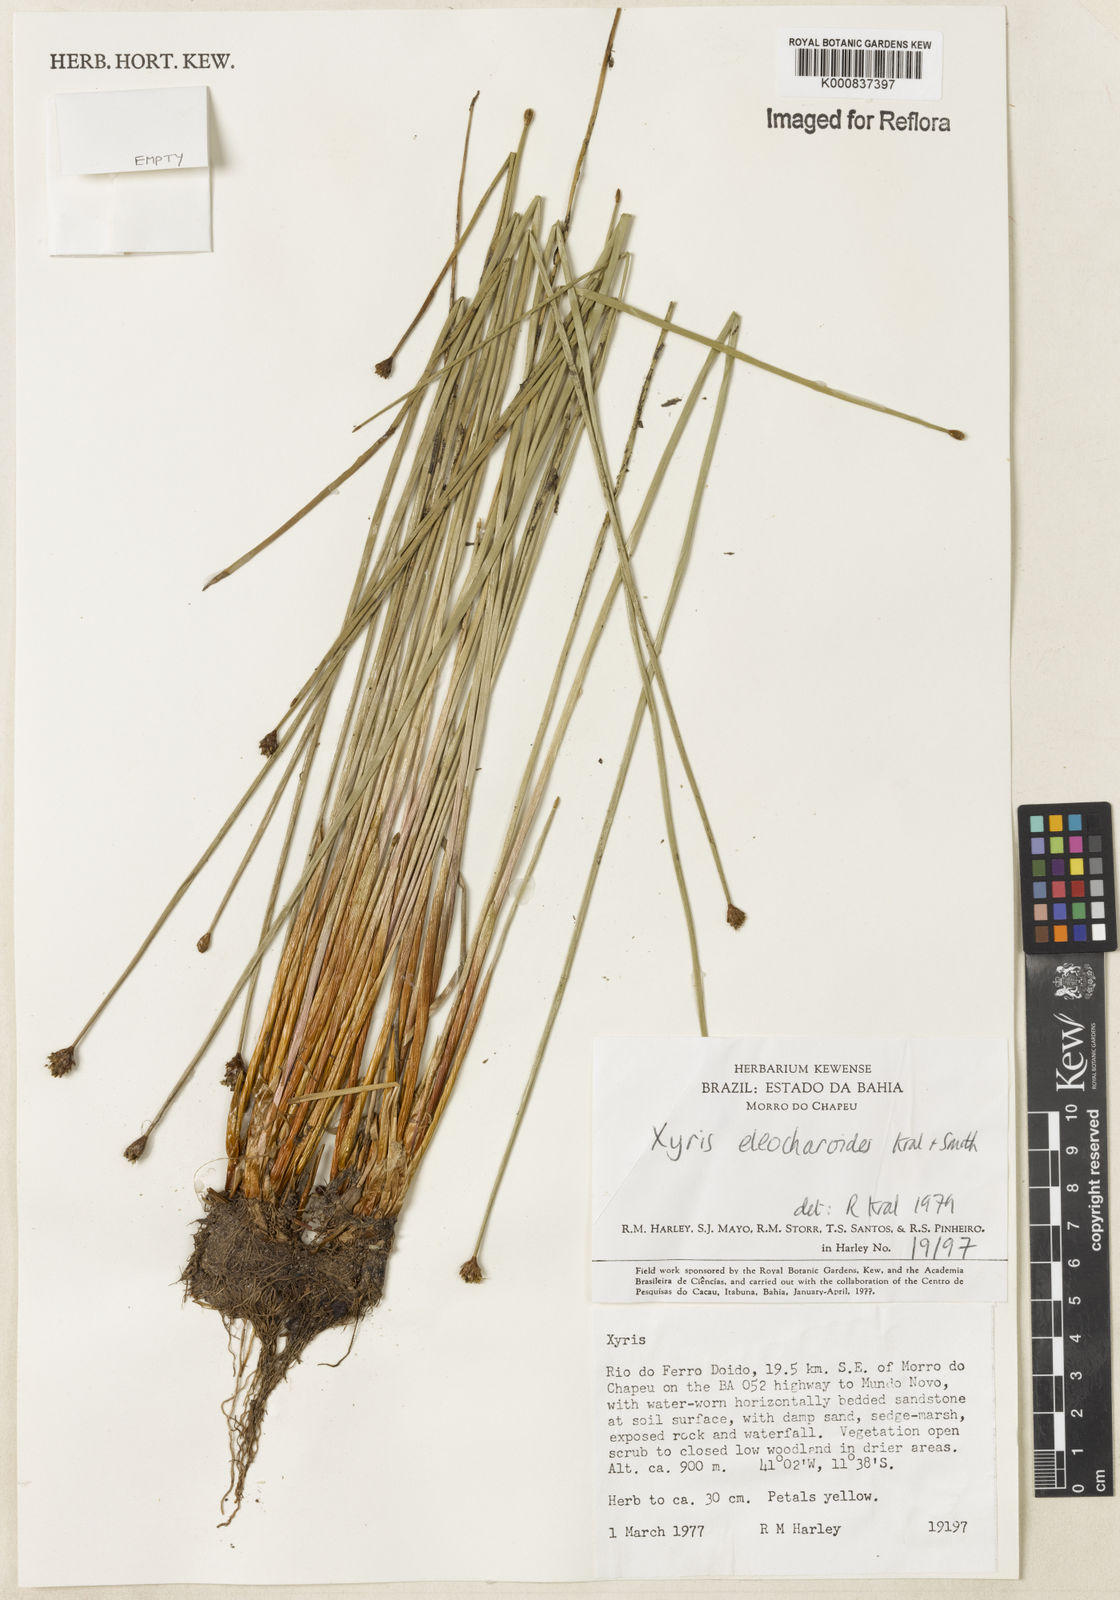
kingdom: Plantae
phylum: Tracheophyta
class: Liliopsida
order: Poales
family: Xyridaceae
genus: Xyris
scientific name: Xyris eleocharoides
